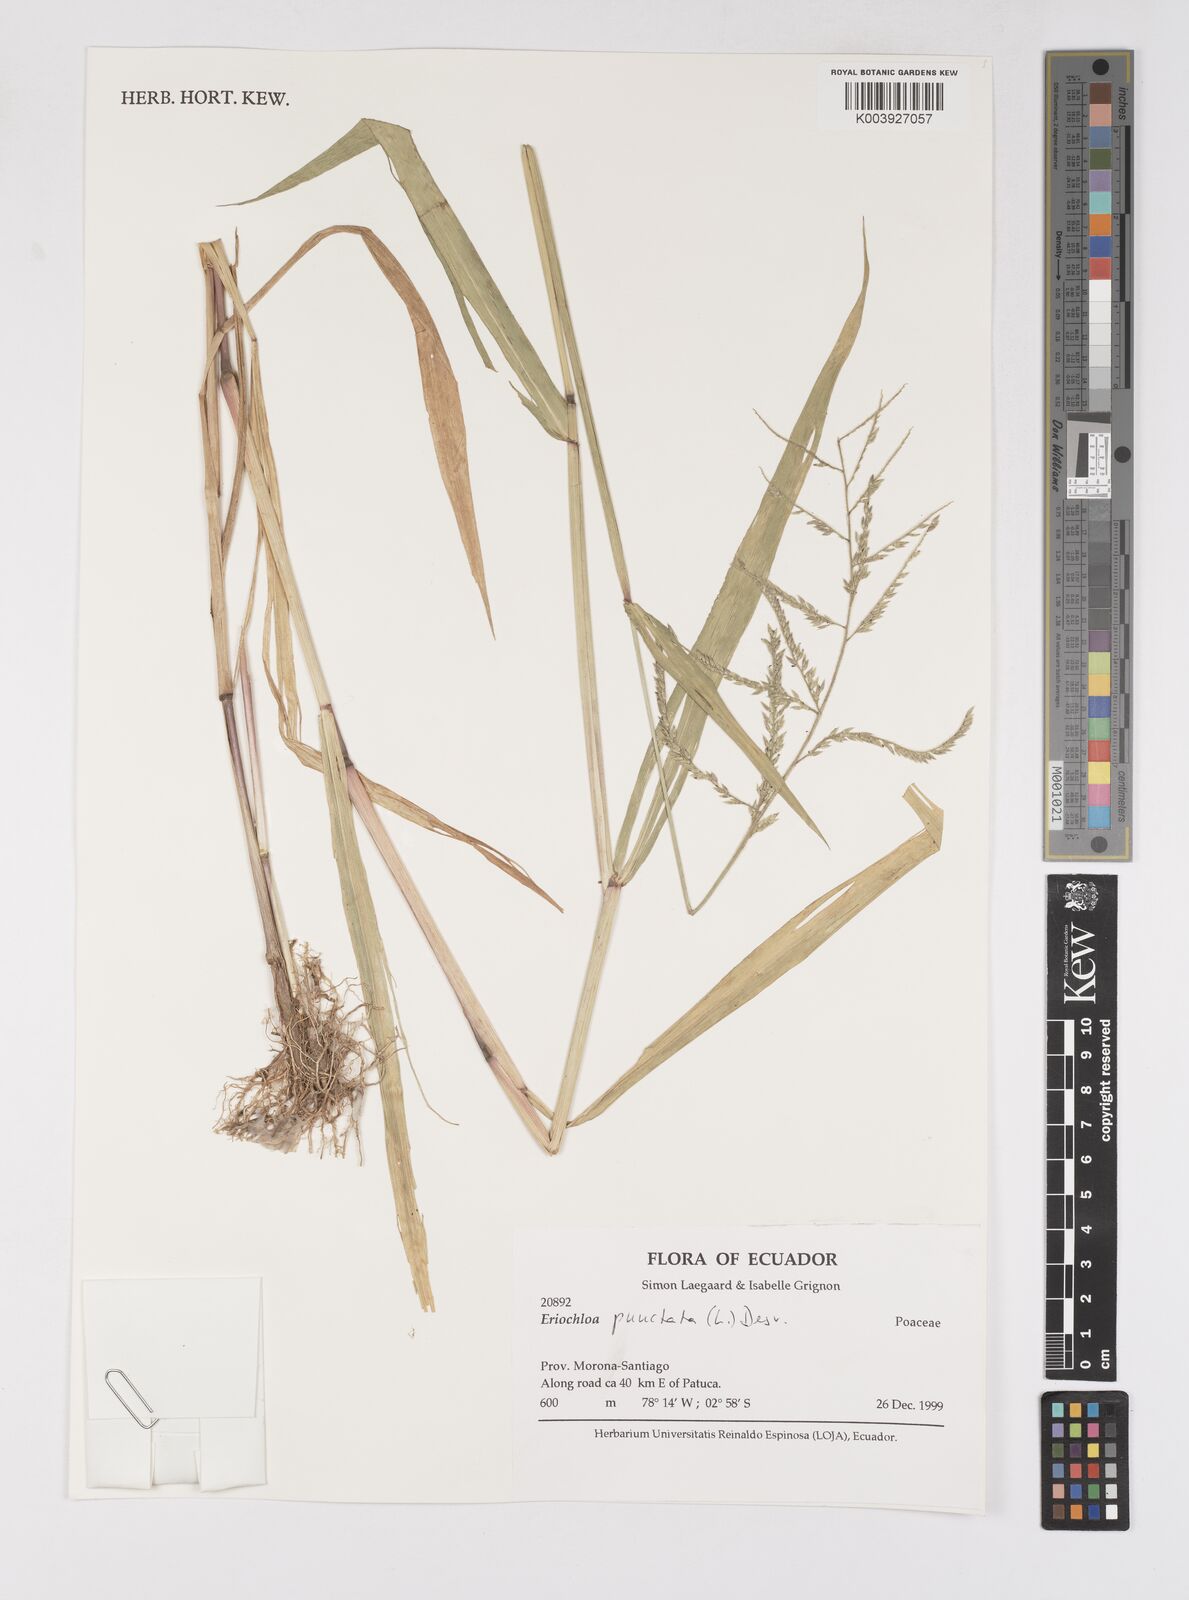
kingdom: Plantae
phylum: Tracheophyta
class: Liliopsida
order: Poales
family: Poaceae
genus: Eriochloa
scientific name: Eriochloa punctata
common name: Louisiana cupgrass
